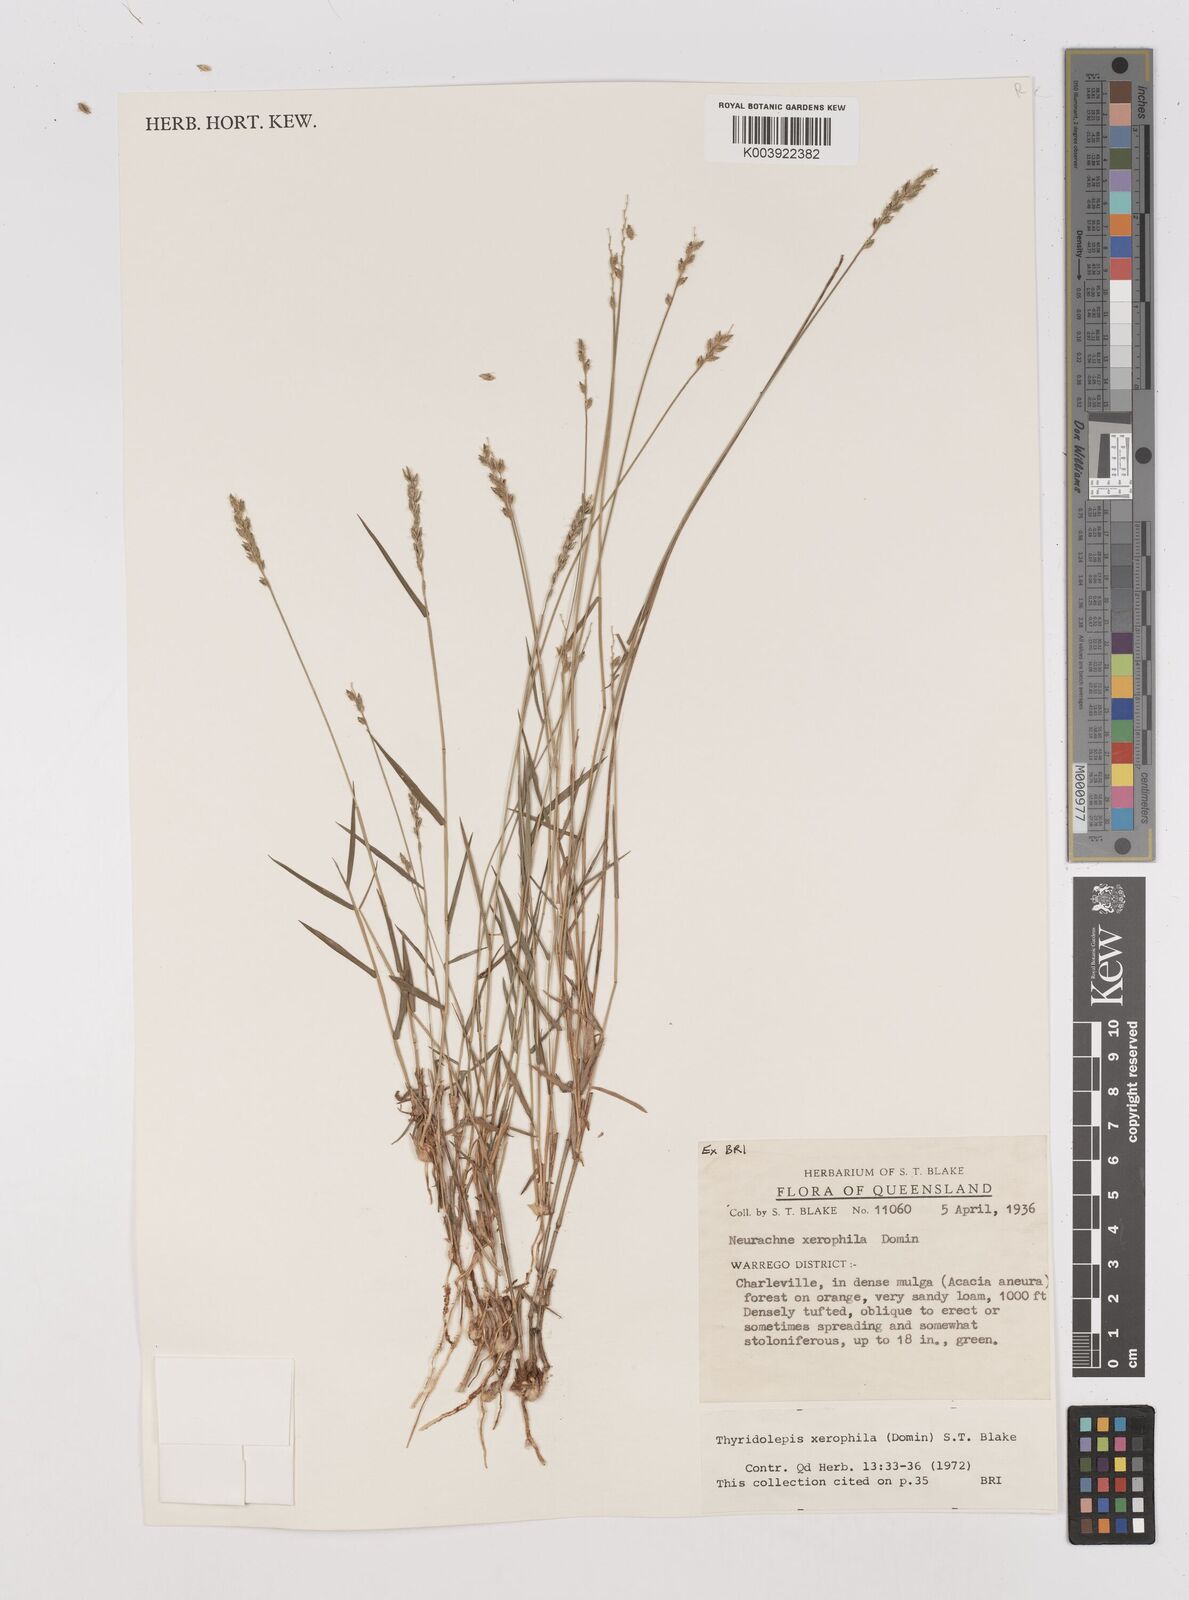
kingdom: Plantae
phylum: Tracheophyta
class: Liliopsida
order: Poales
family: Poaceae
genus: Thyridolepis
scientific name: Thyridolepis xerophila
